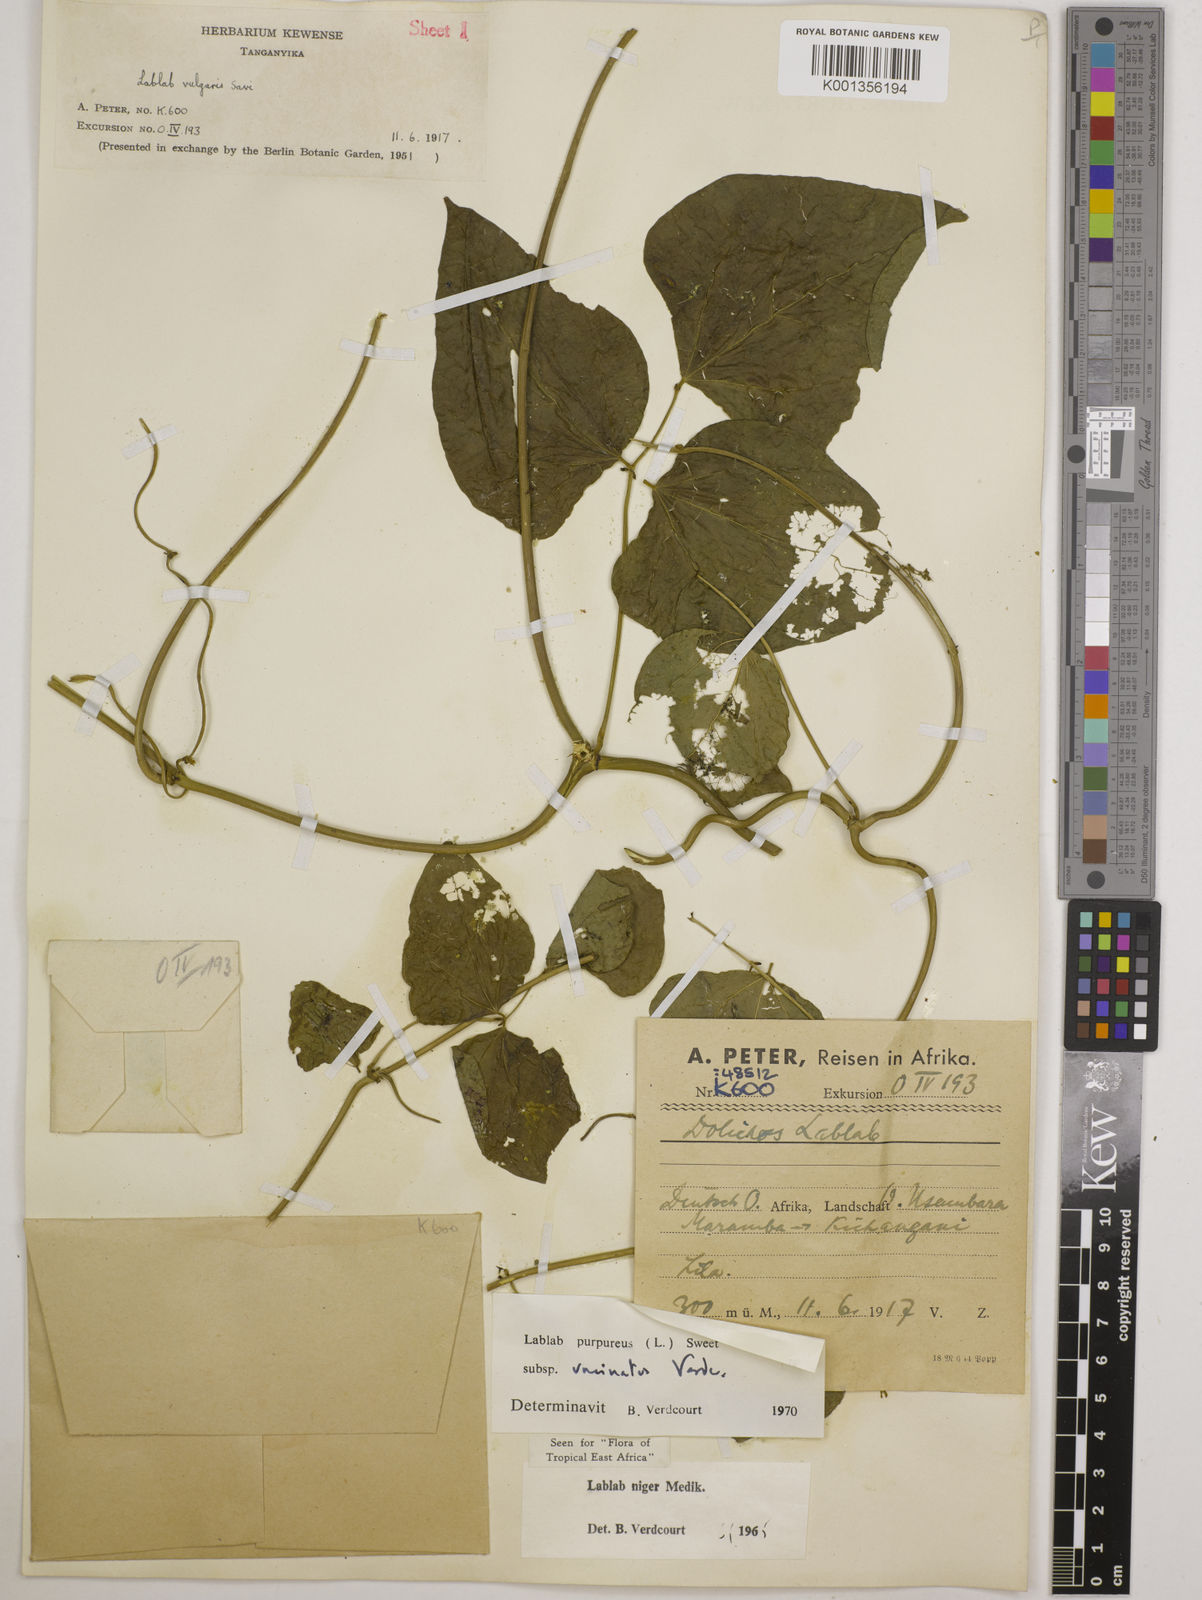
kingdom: Plantae
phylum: Tracheophyta
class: Magnoliopsida
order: Fabales
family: Fabaceae
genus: Lablab
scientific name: Lablab purpureus
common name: Lablab-bean
